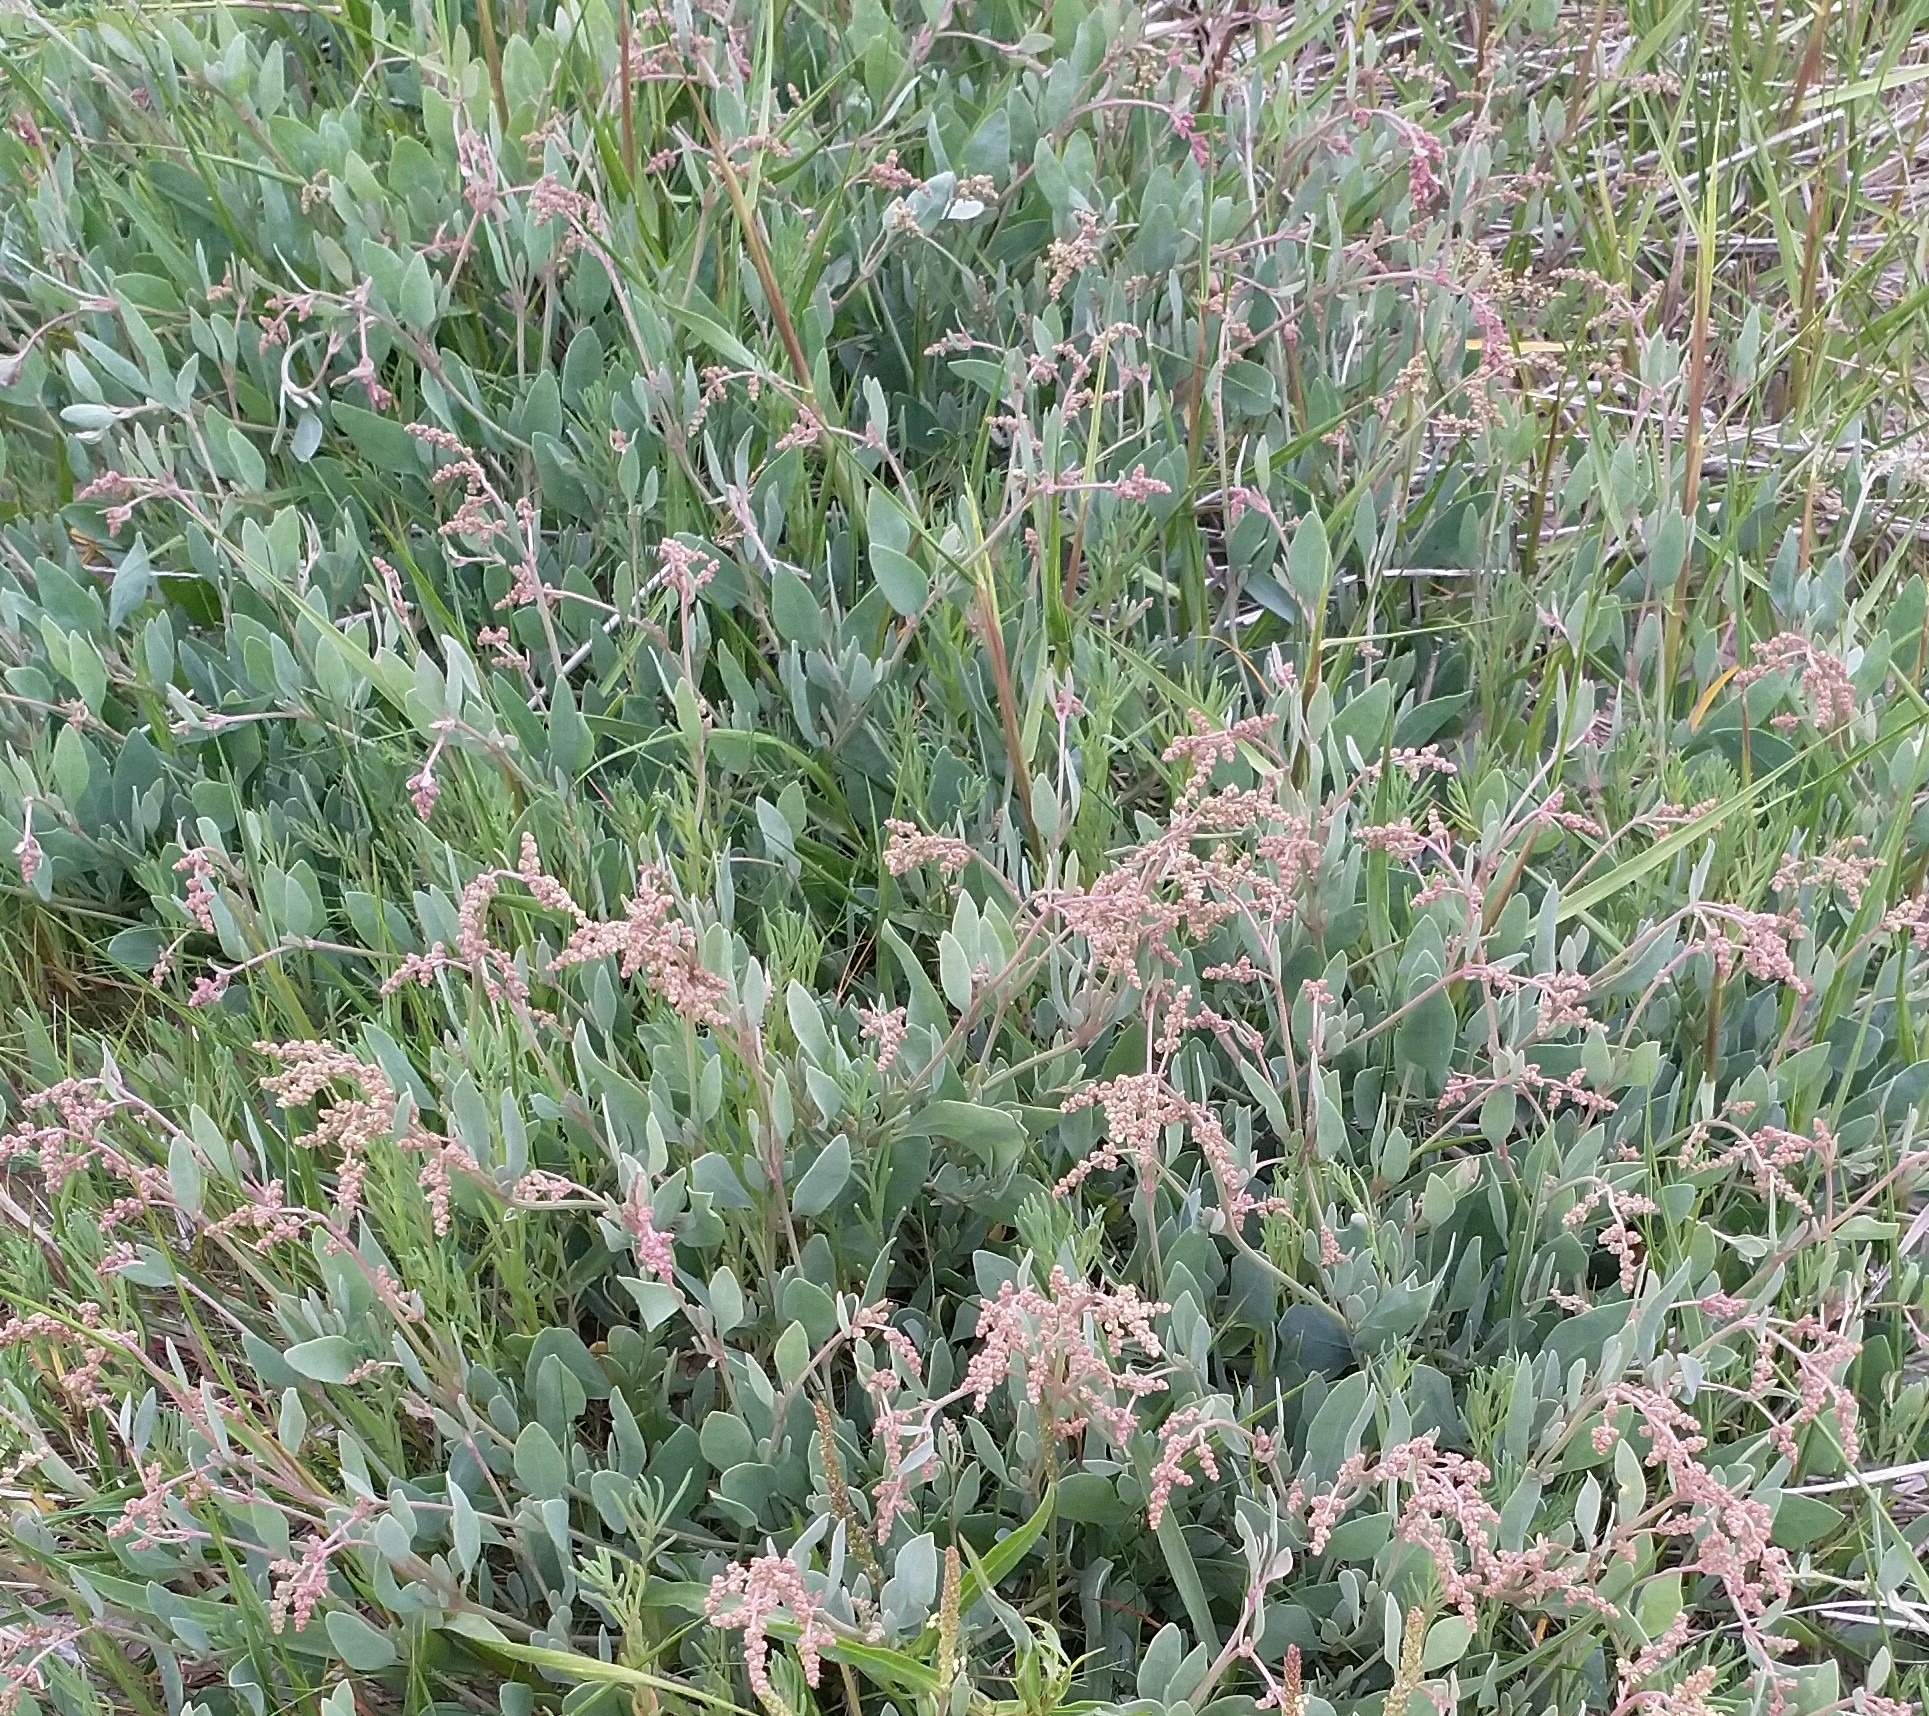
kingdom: Plantae
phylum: Tracheophyta
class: Magnoliopsida
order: Caryophyllales
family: Amaranthaceae
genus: Halimione
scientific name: Halimione portulacoides
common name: Stilkløs kilebæger
